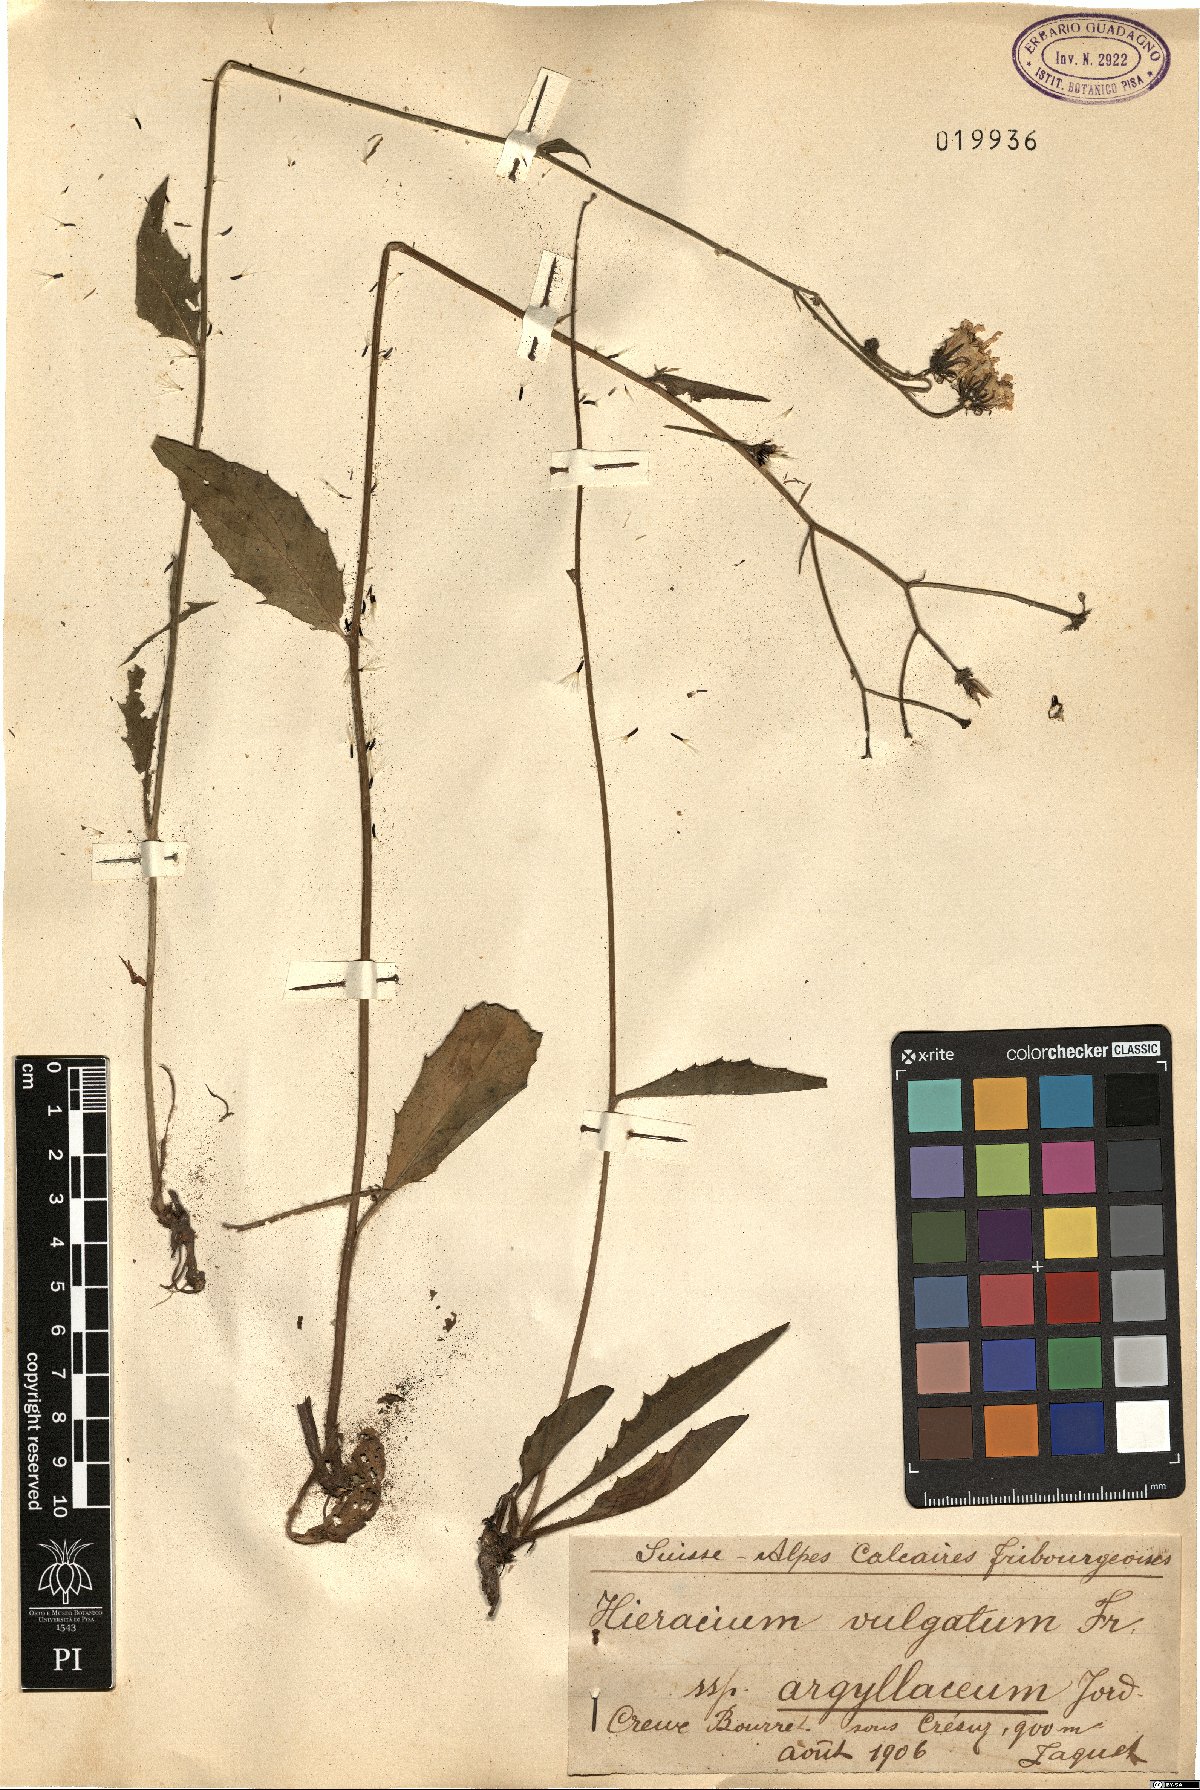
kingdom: Plantae
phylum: Tracheophyta
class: Magnoliopsida
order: Asterales
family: Asteraceae
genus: Hieracium
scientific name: Hieracium lachenalii
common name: Common hawkweed
